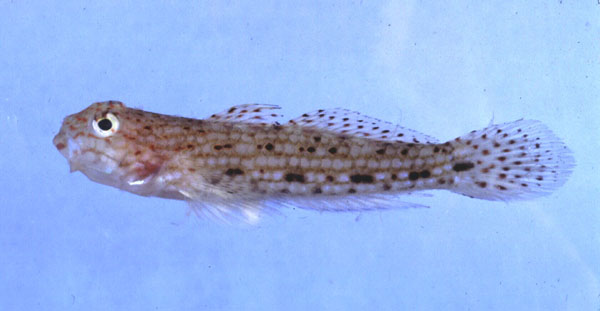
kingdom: Animalia
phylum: Chordata
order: Perciformes
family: Gobiidae
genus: Istigobius
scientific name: Istigobius decoratus
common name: Decorated goby
